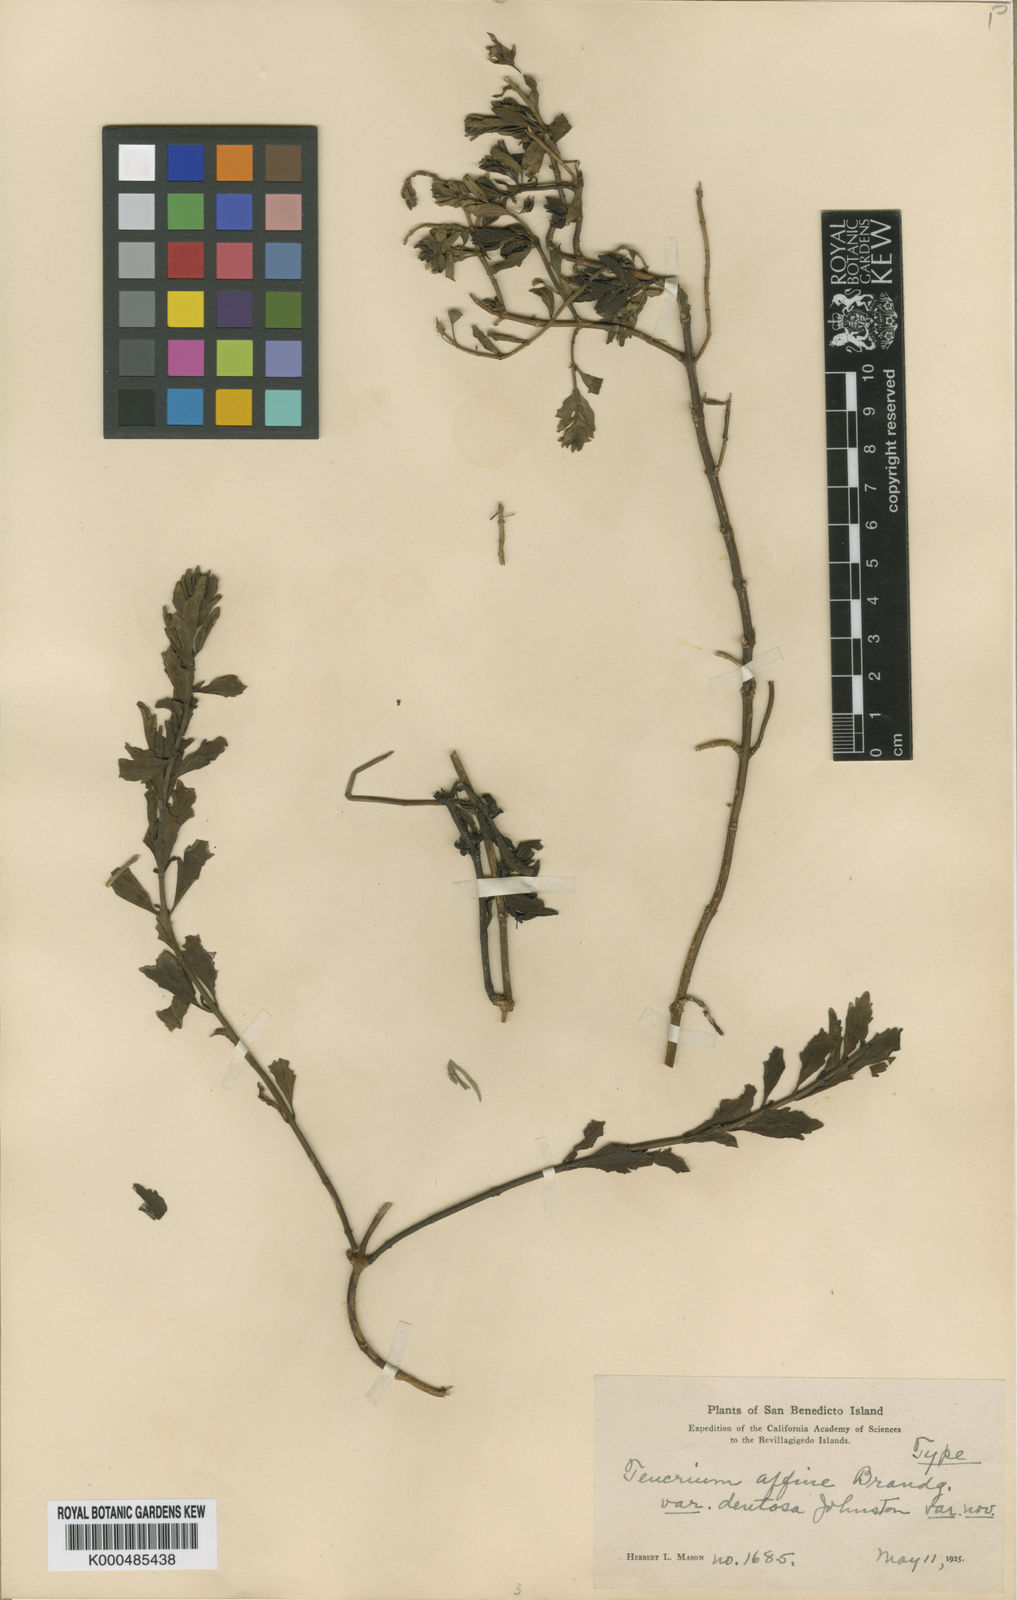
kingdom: Plantae
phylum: Tracheophyta
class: Magnoliopsida
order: Lamiales
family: Lamiaceae
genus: Teucrium
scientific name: Teucrium townsendii
